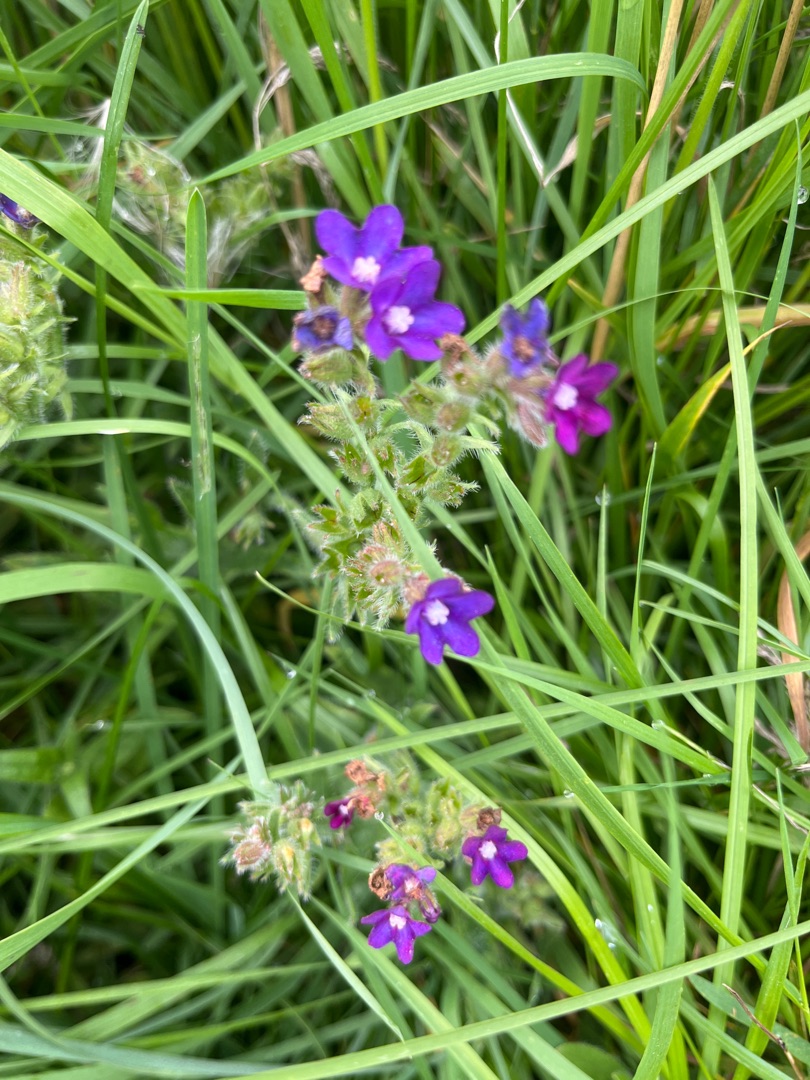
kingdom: Plantae
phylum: Tracheophyta
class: Magnoliopsida
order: Boraginales
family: Boraginaceae
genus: Anchusa
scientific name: Anchusa officinalis
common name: Læge-oksetunge
